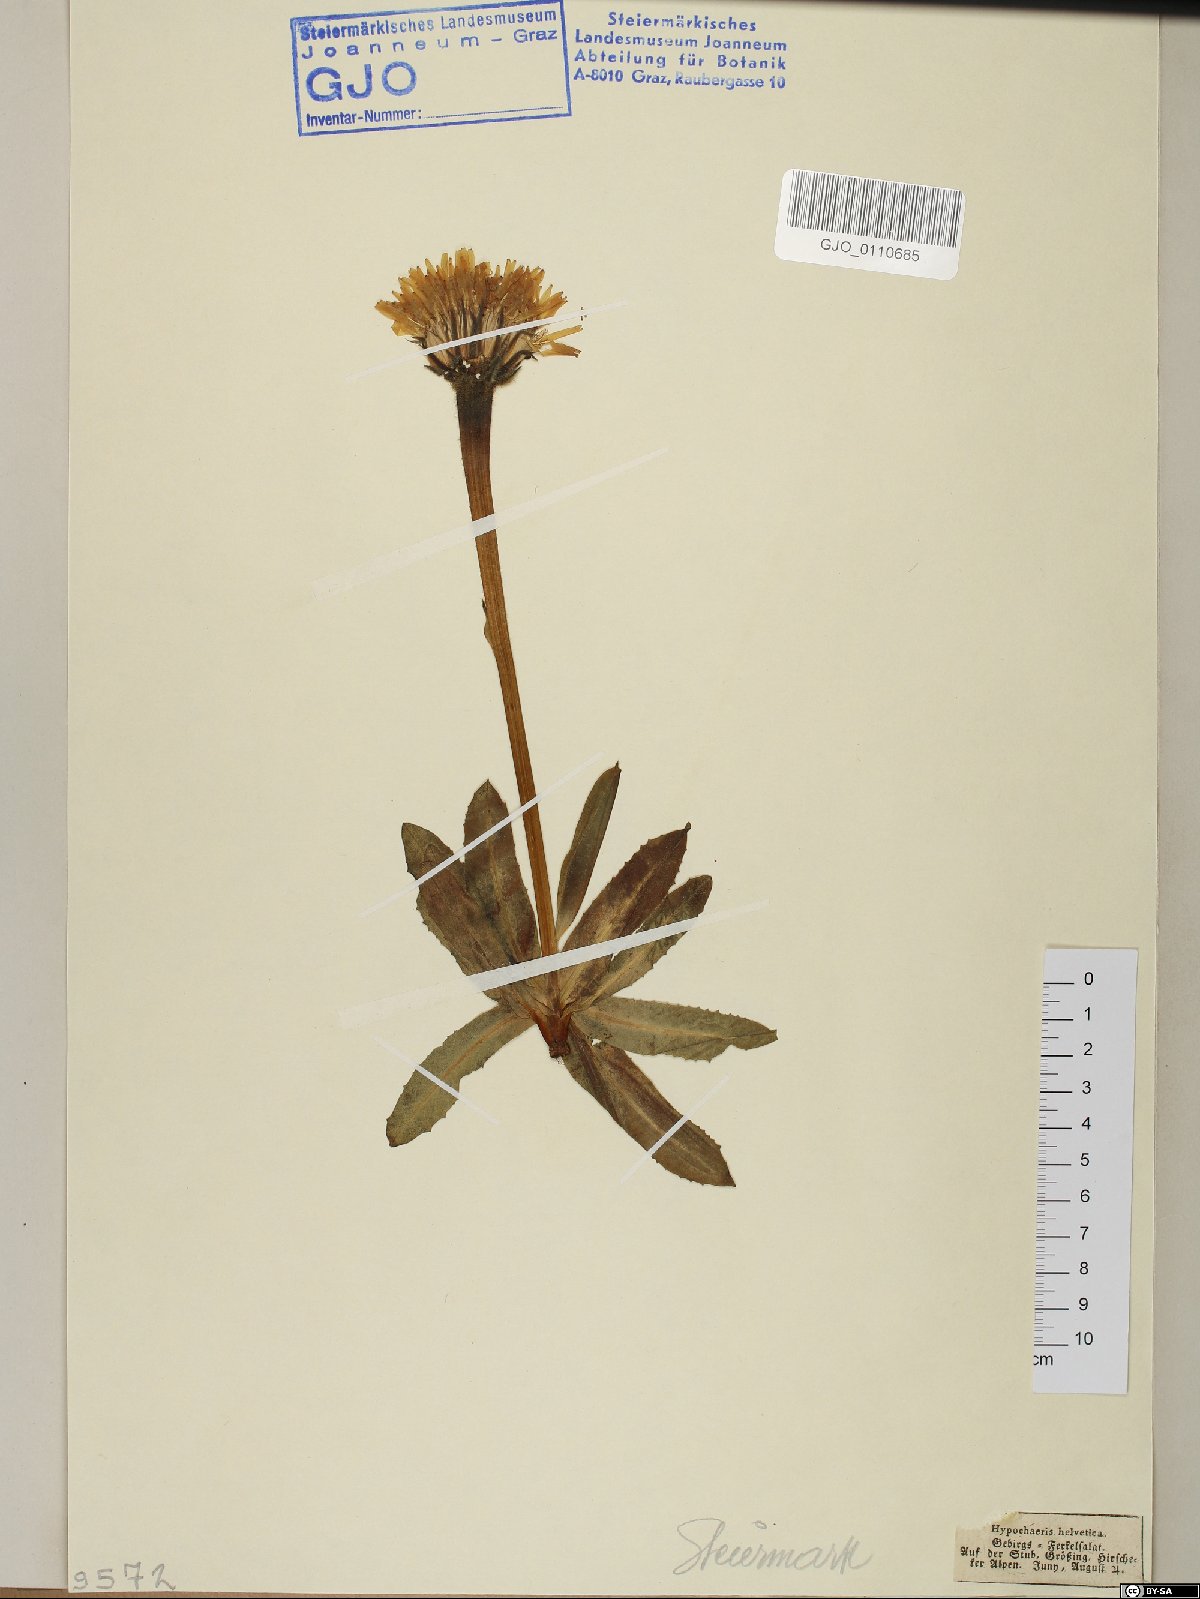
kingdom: Plantae
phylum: Tracheophyta
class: Magnoliopsida
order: Asterales
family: Asteraceae
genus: Trommsdorffia
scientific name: Trommsdorffia uniflora
